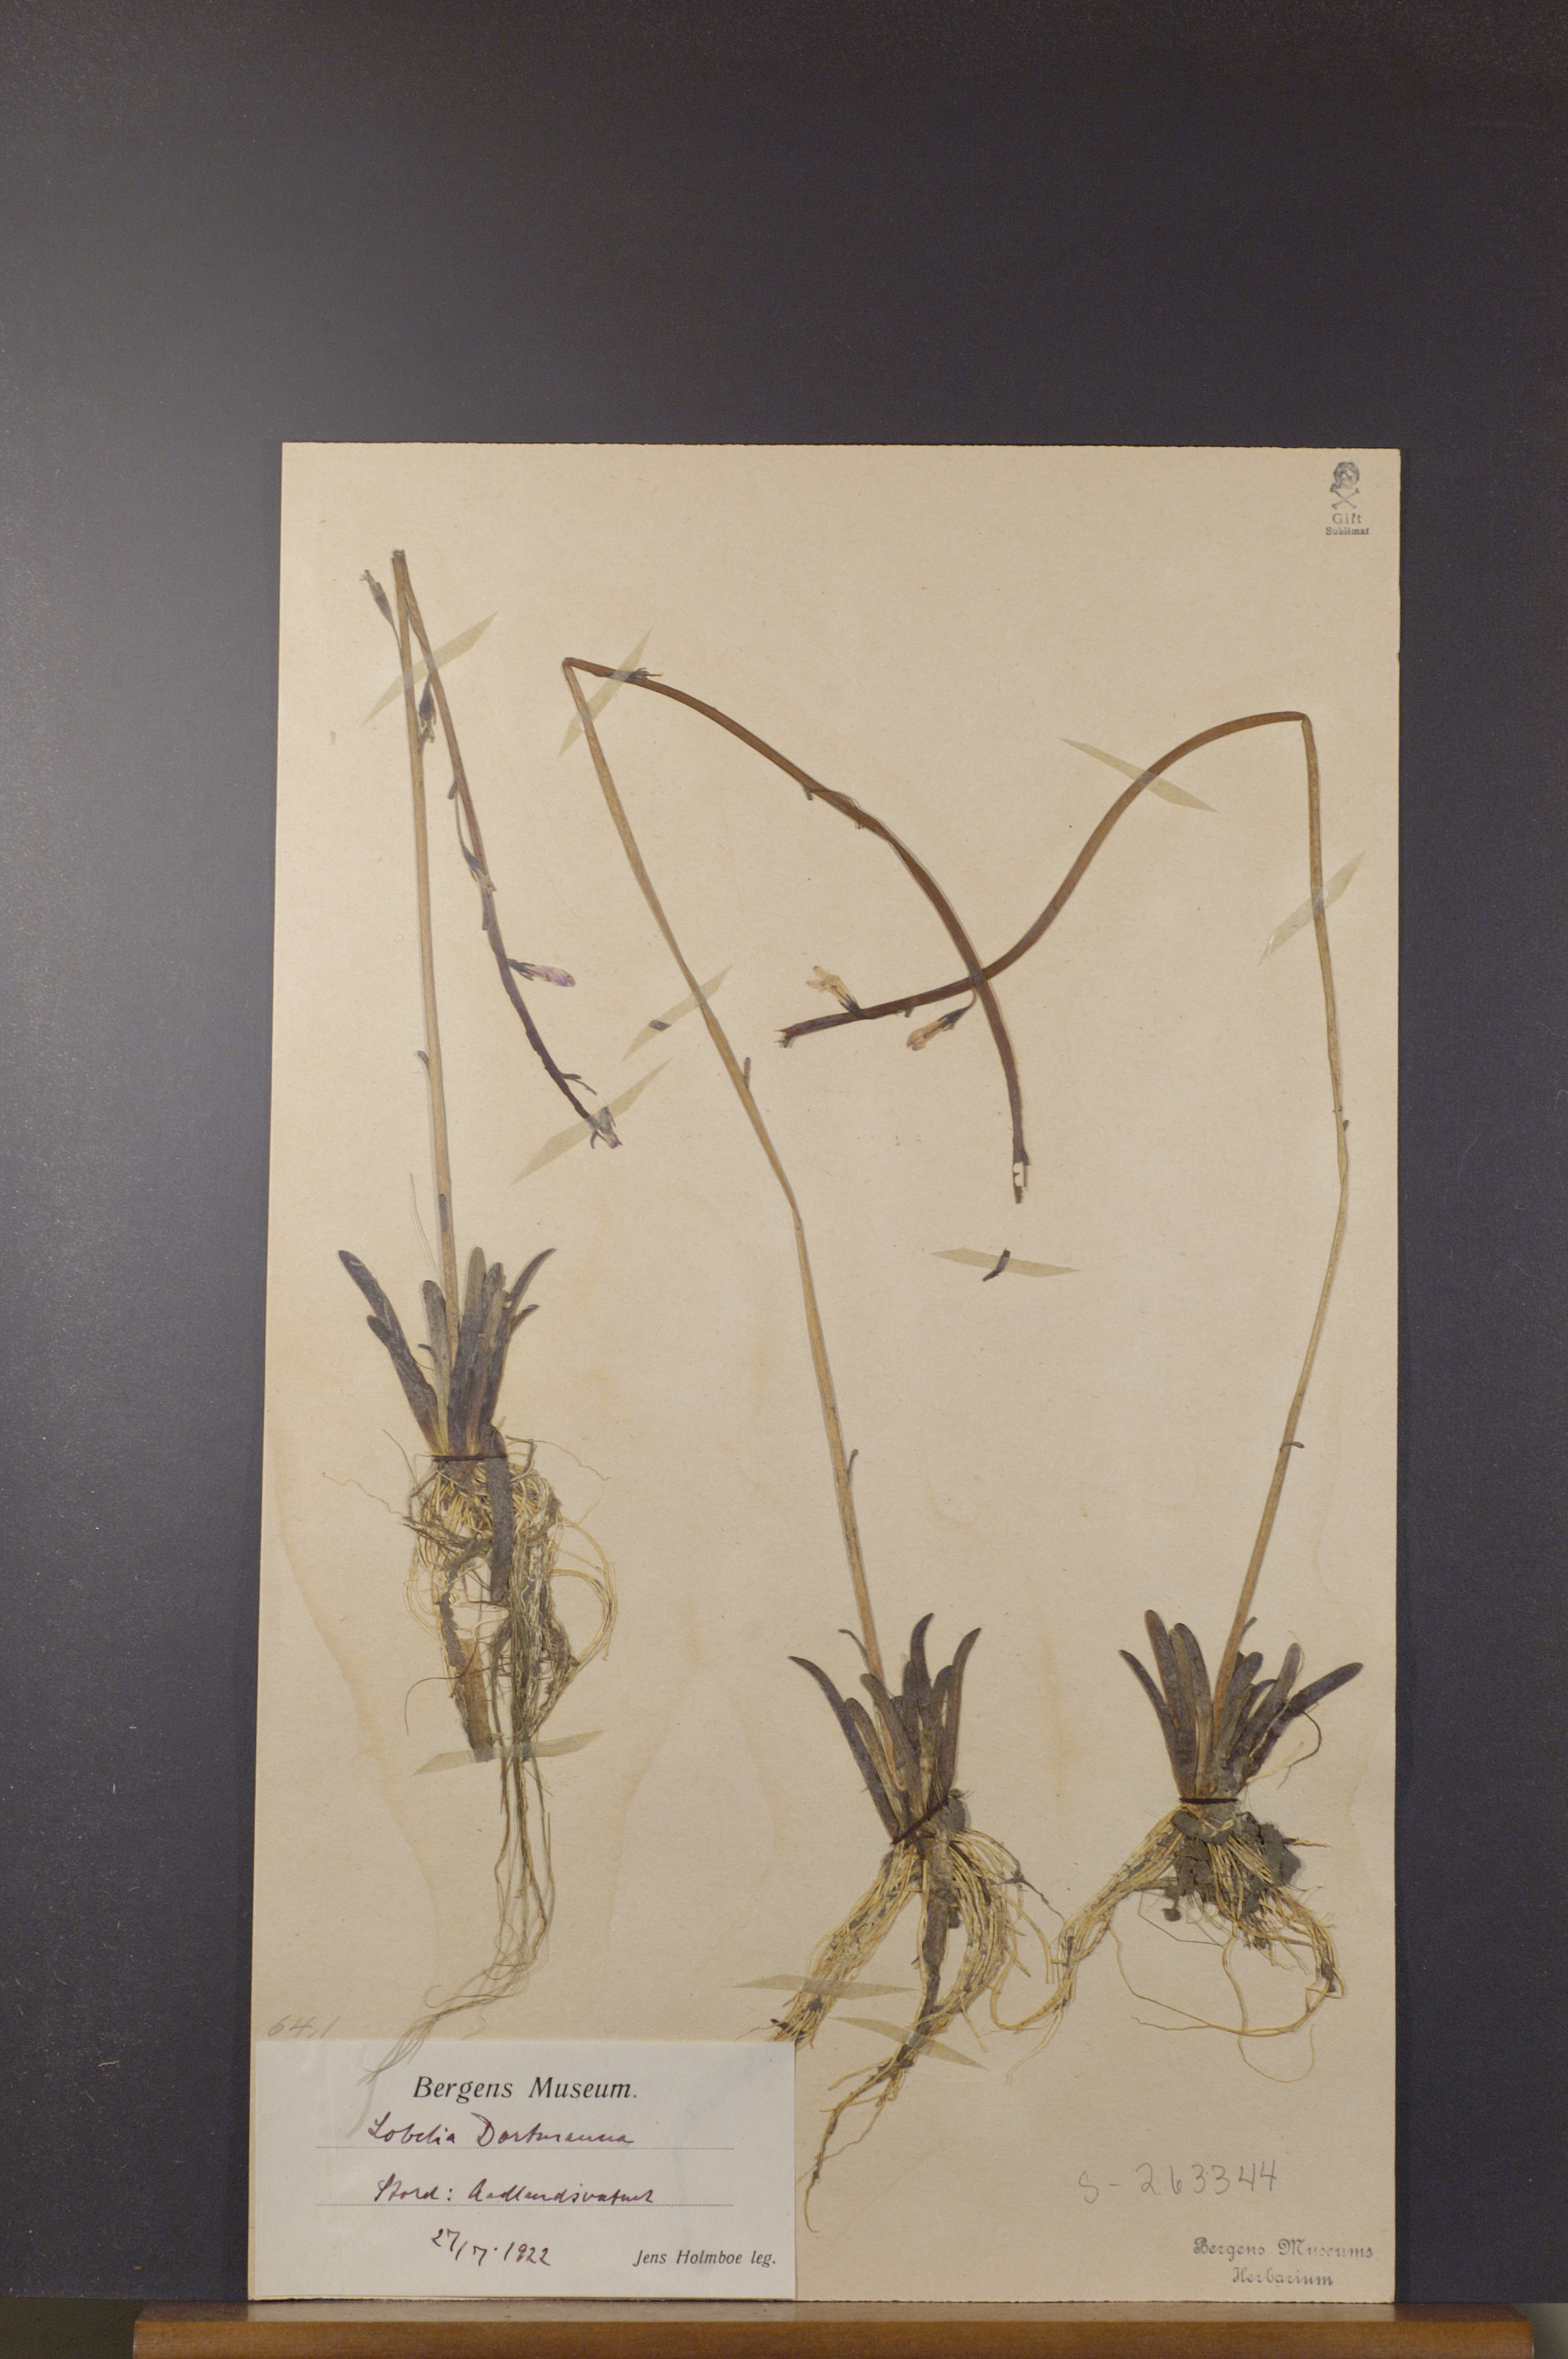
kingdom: Plantae
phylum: Tracheophyta
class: Magnoliopsida
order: Asterales
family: Campanulaceae
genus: Lobelia
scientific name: Lobelia dortmanna
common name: Water lobelia
